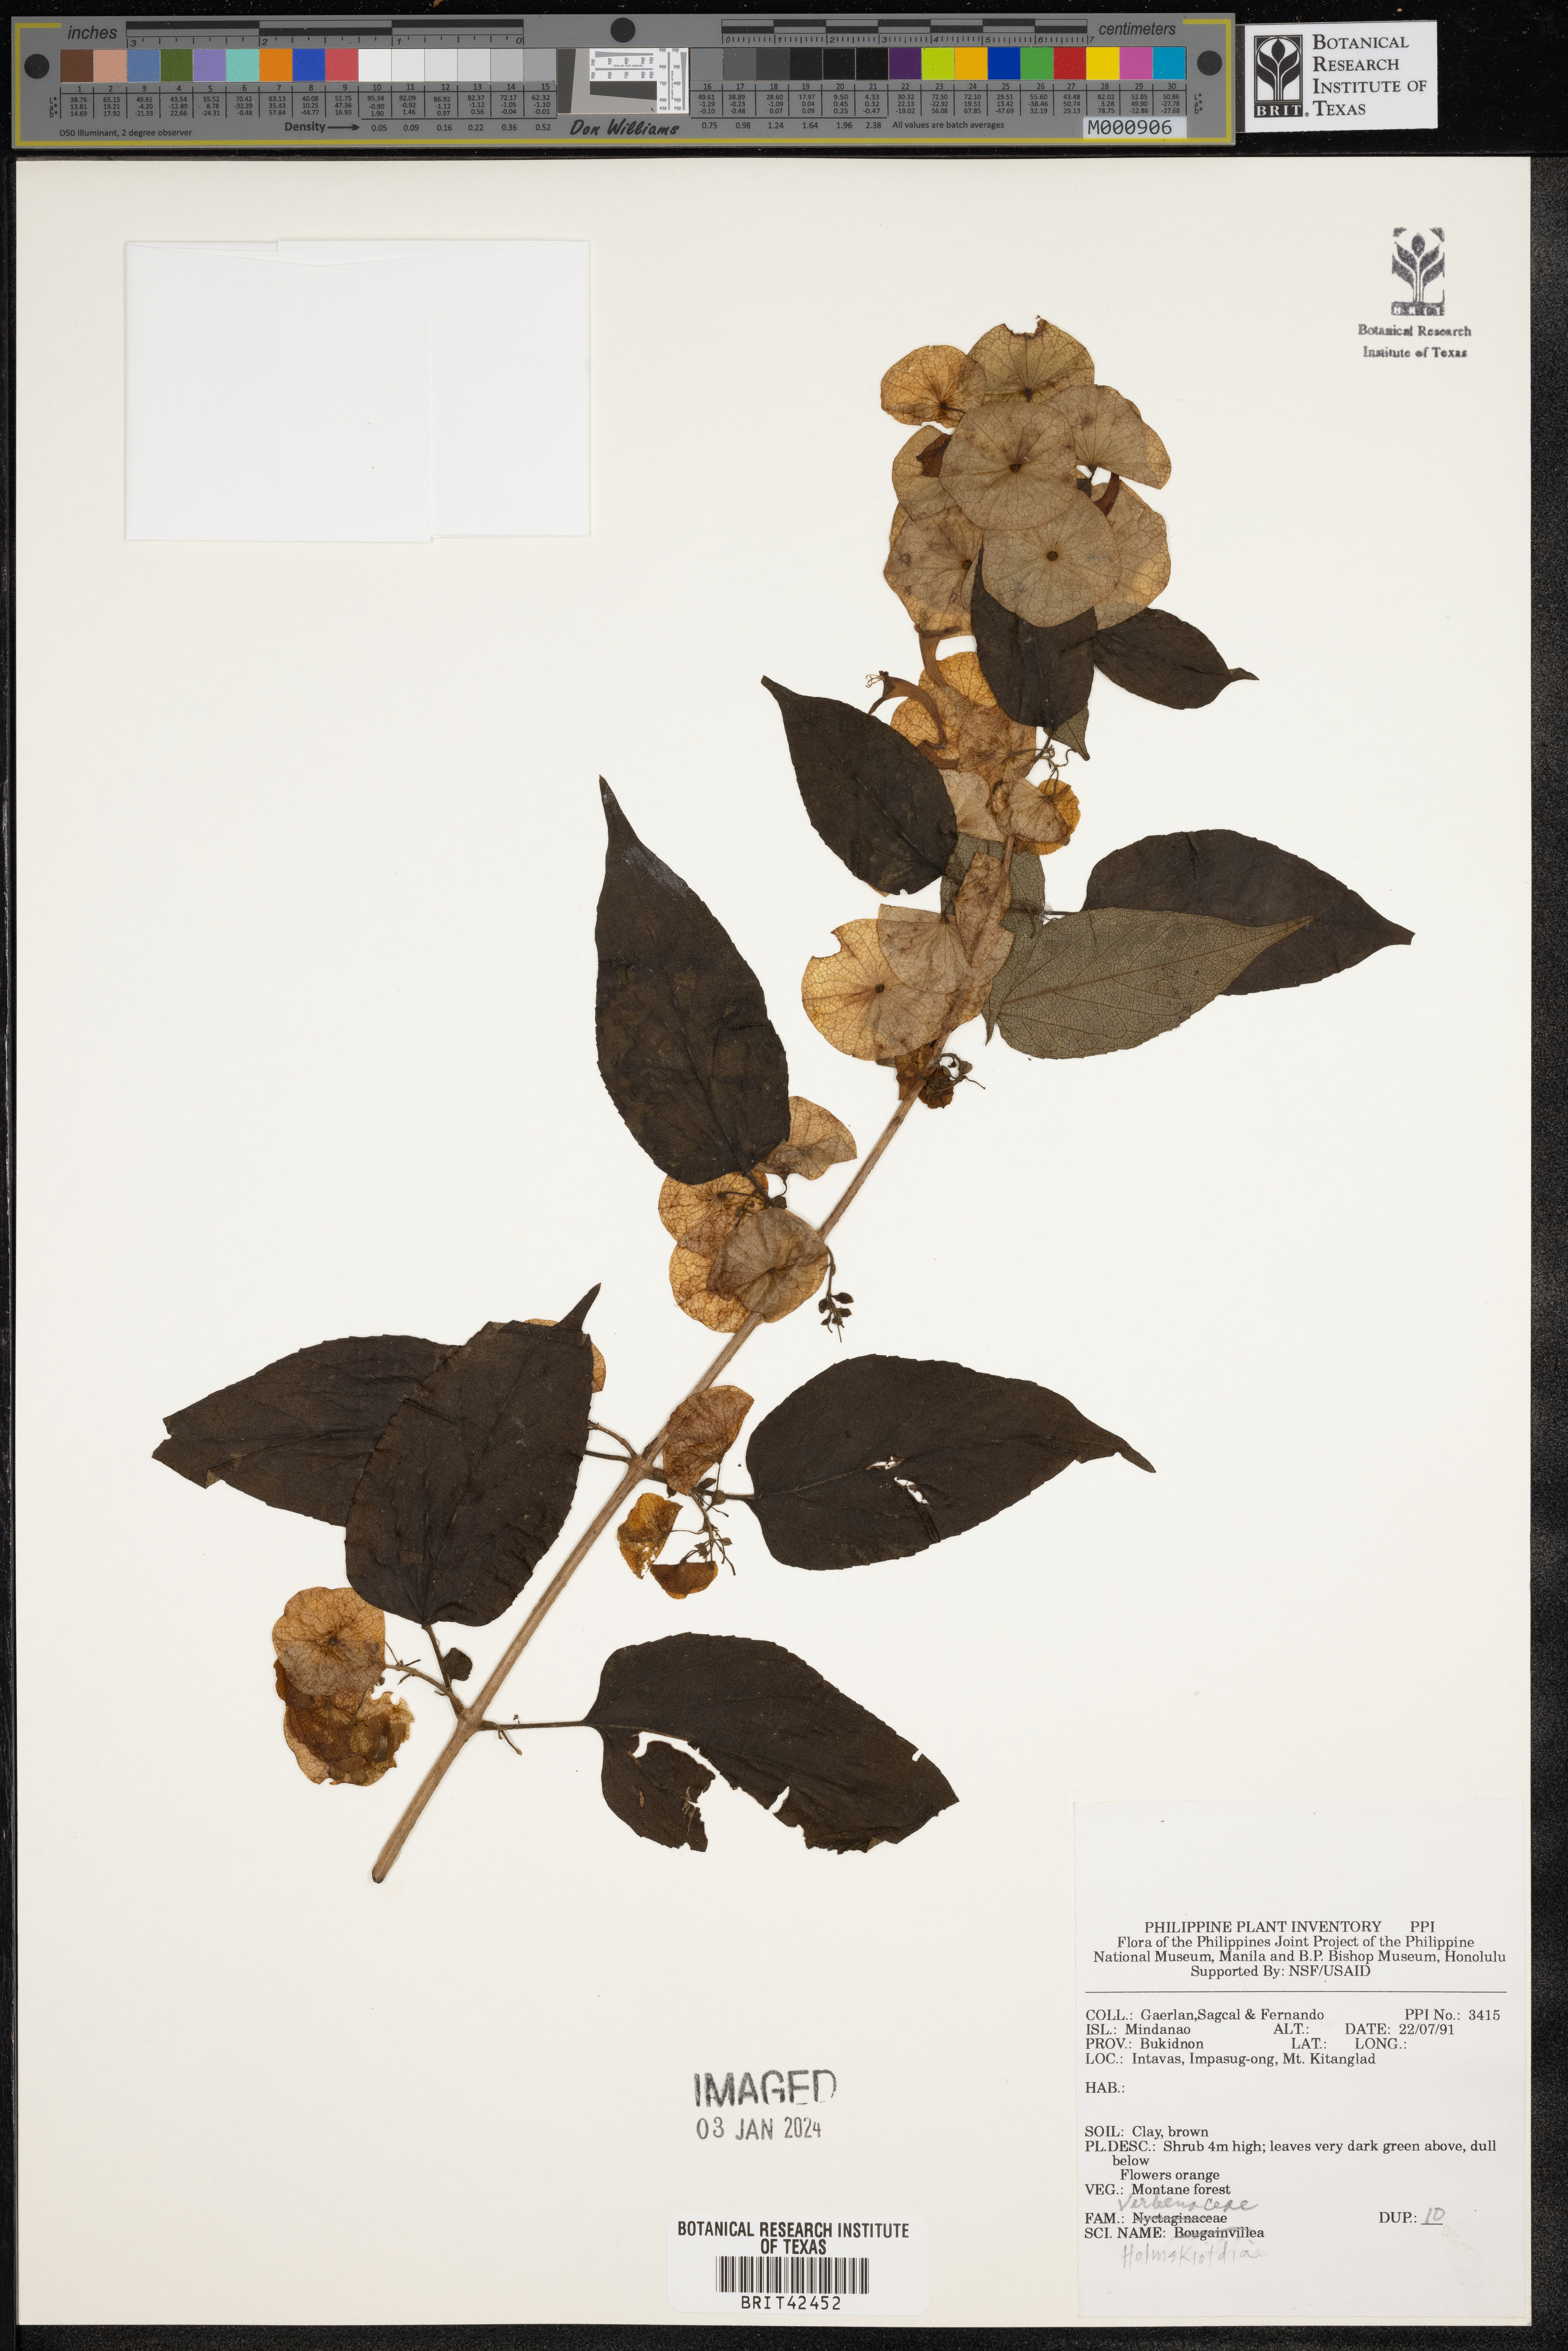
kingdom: Plantae
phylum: Tracheophyta
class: Magnoliopsida
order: Lamiales
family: Lamiaceae
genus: Holmskioldia
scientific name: Holmskioldia
